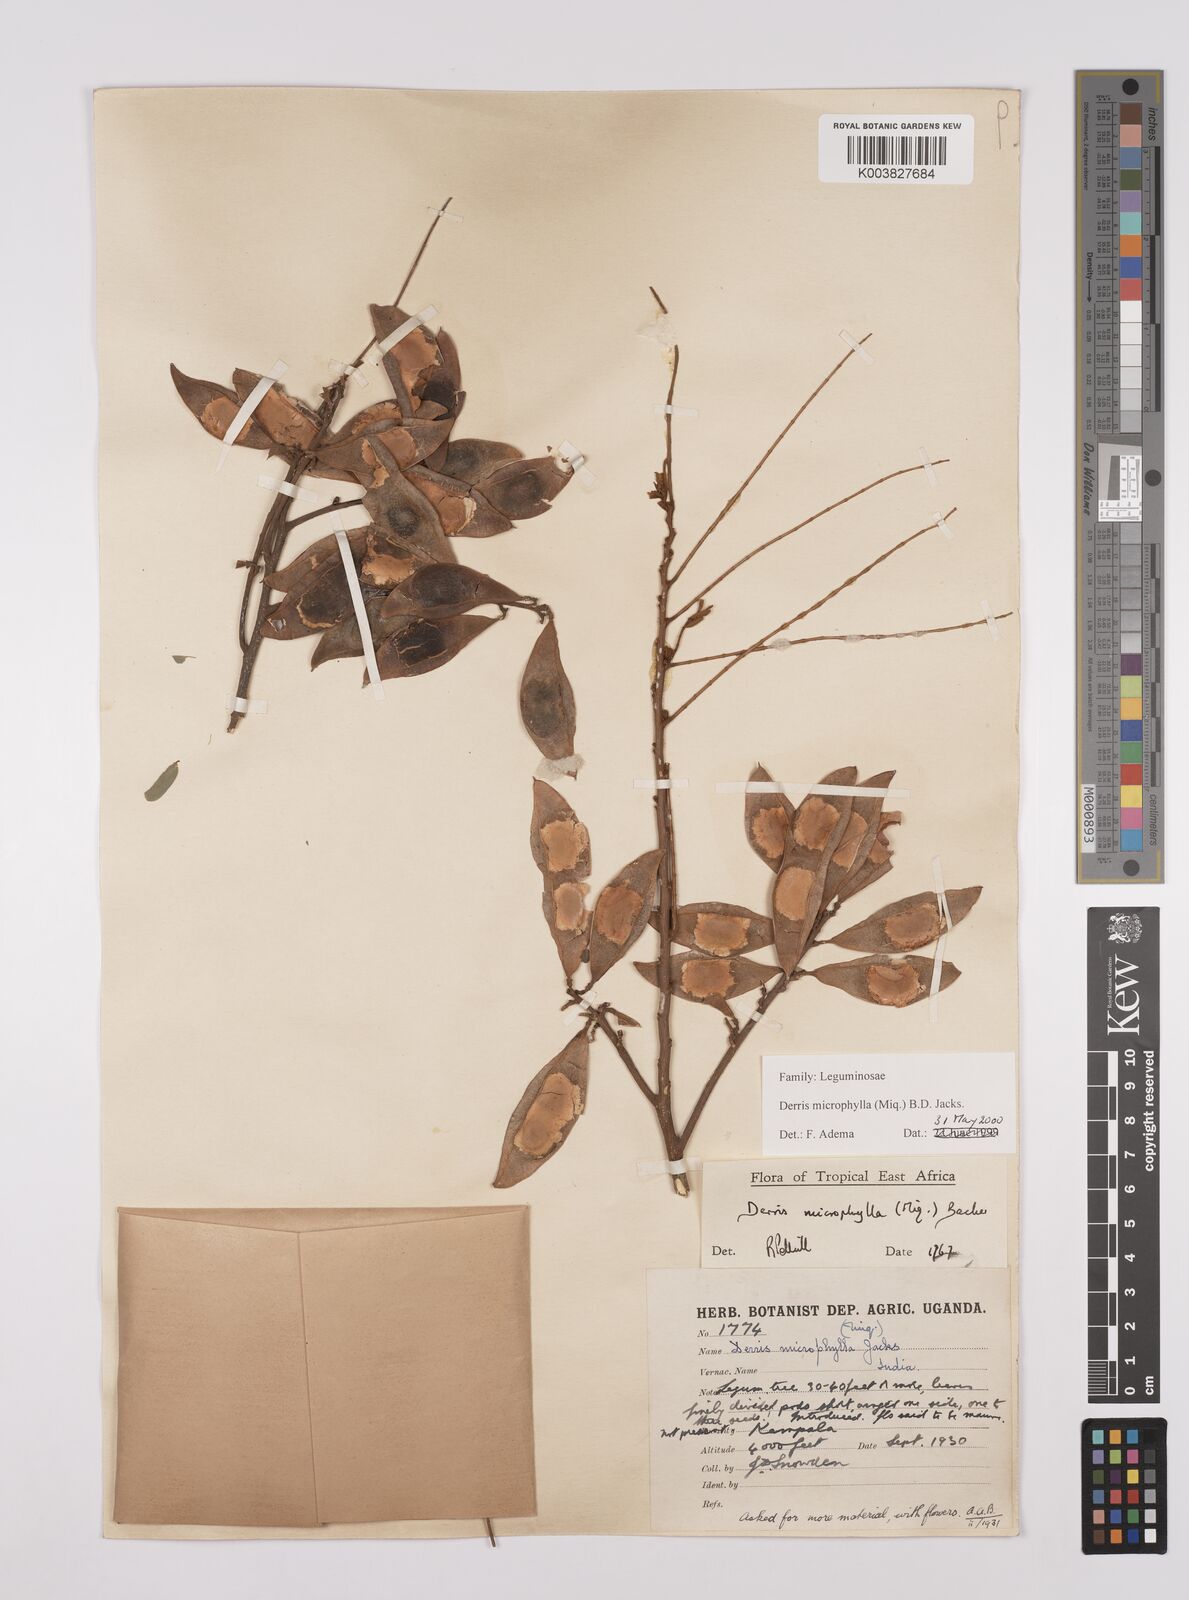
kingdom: Plantae
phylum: Tracheophyta
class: Magnoliopsida
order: Fabales
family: Fabaceae
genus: Brachypterum
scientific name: Brachypterum microphyllum
